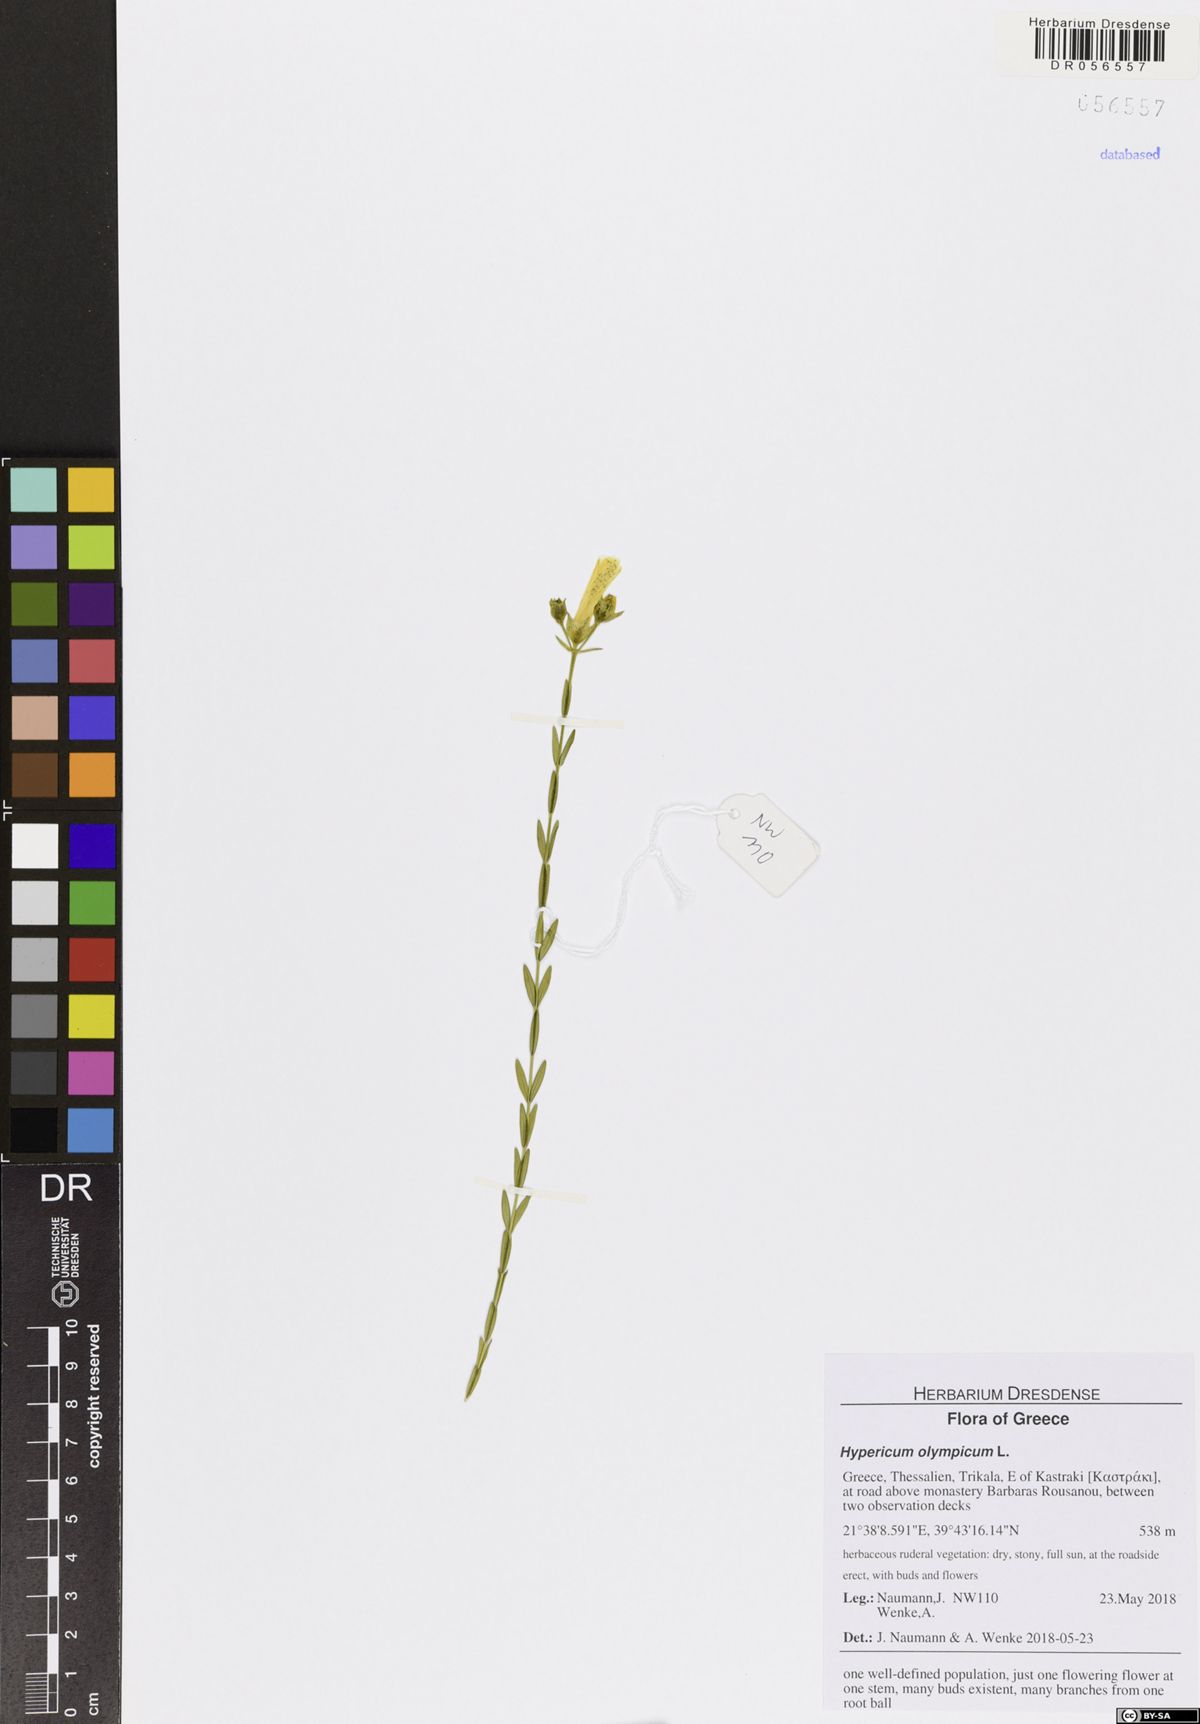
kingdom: Plantae
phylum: Tracheophyta
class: Magnoliopsida
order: Malpighiales
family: Hypericaceae
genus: Hypericum
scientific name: Hypericum olympicum
